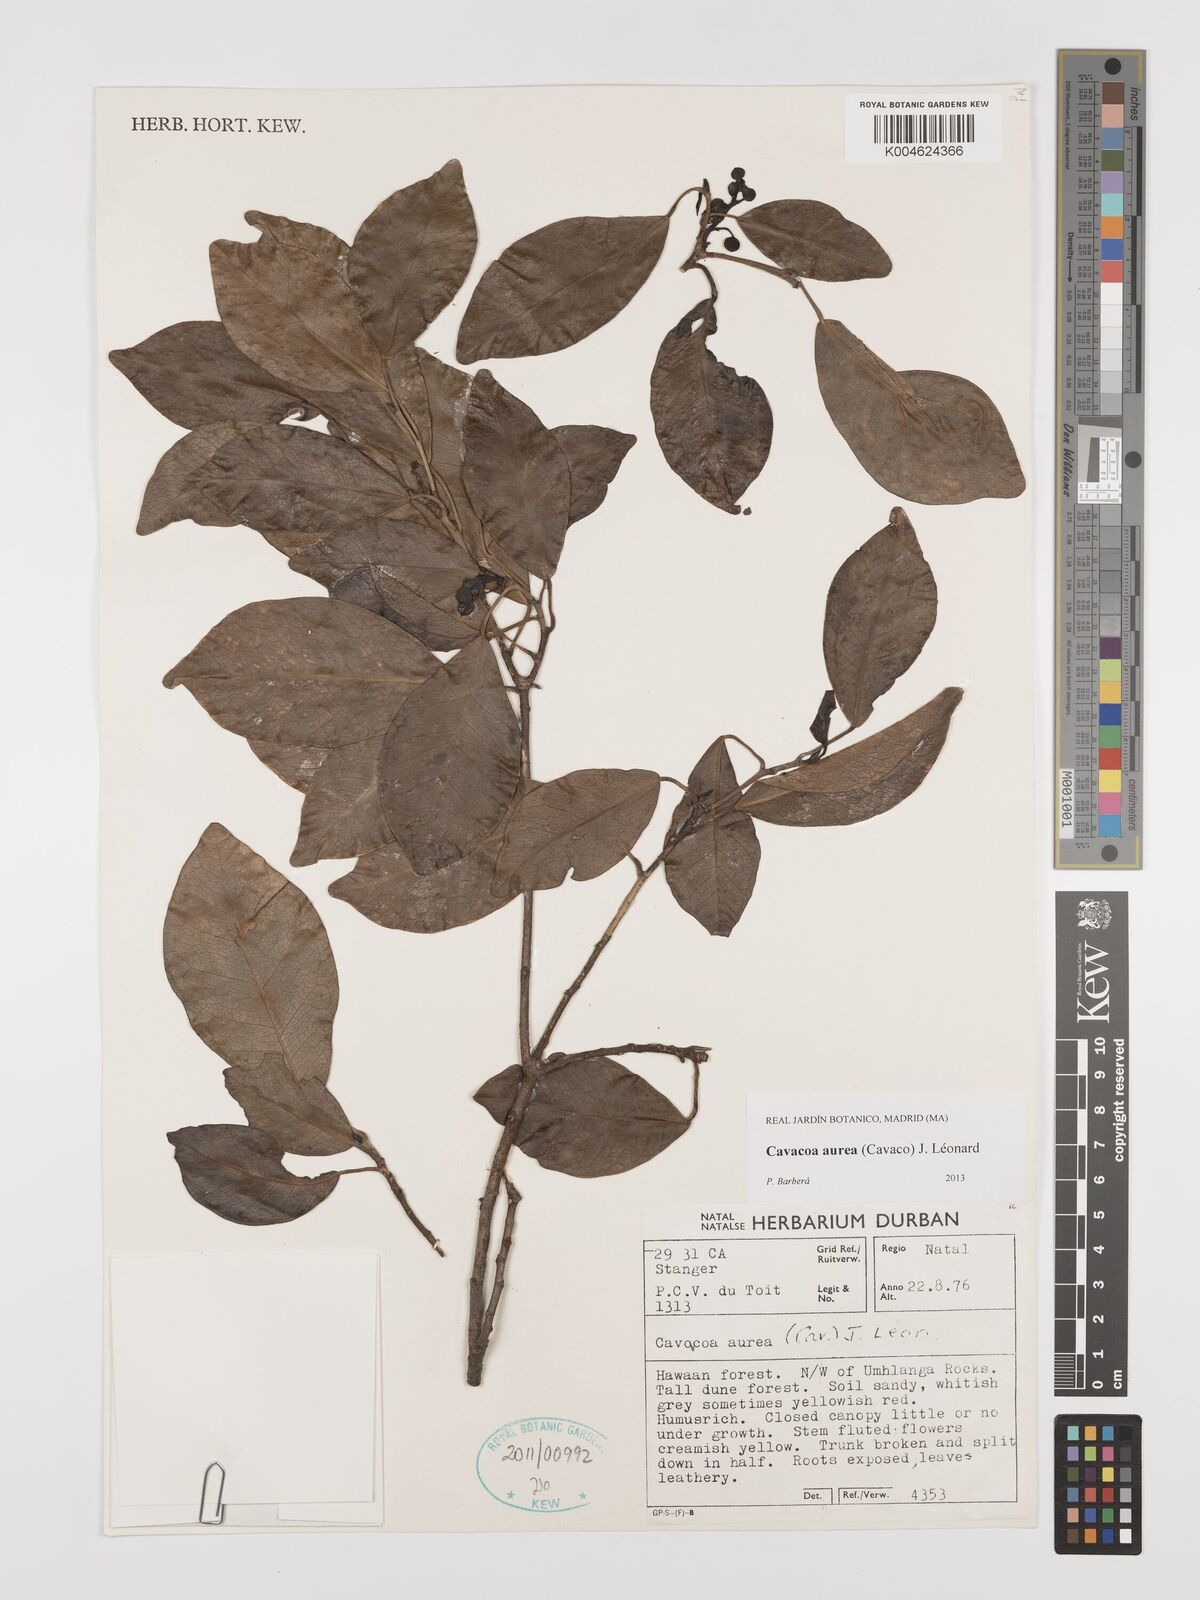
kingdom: Plantae
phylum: Tracheophyta
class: Magnoliopsida
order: Malpighiales
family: Euphorbiaceae
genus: Cavacoa
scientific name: Cavacoa aurea
